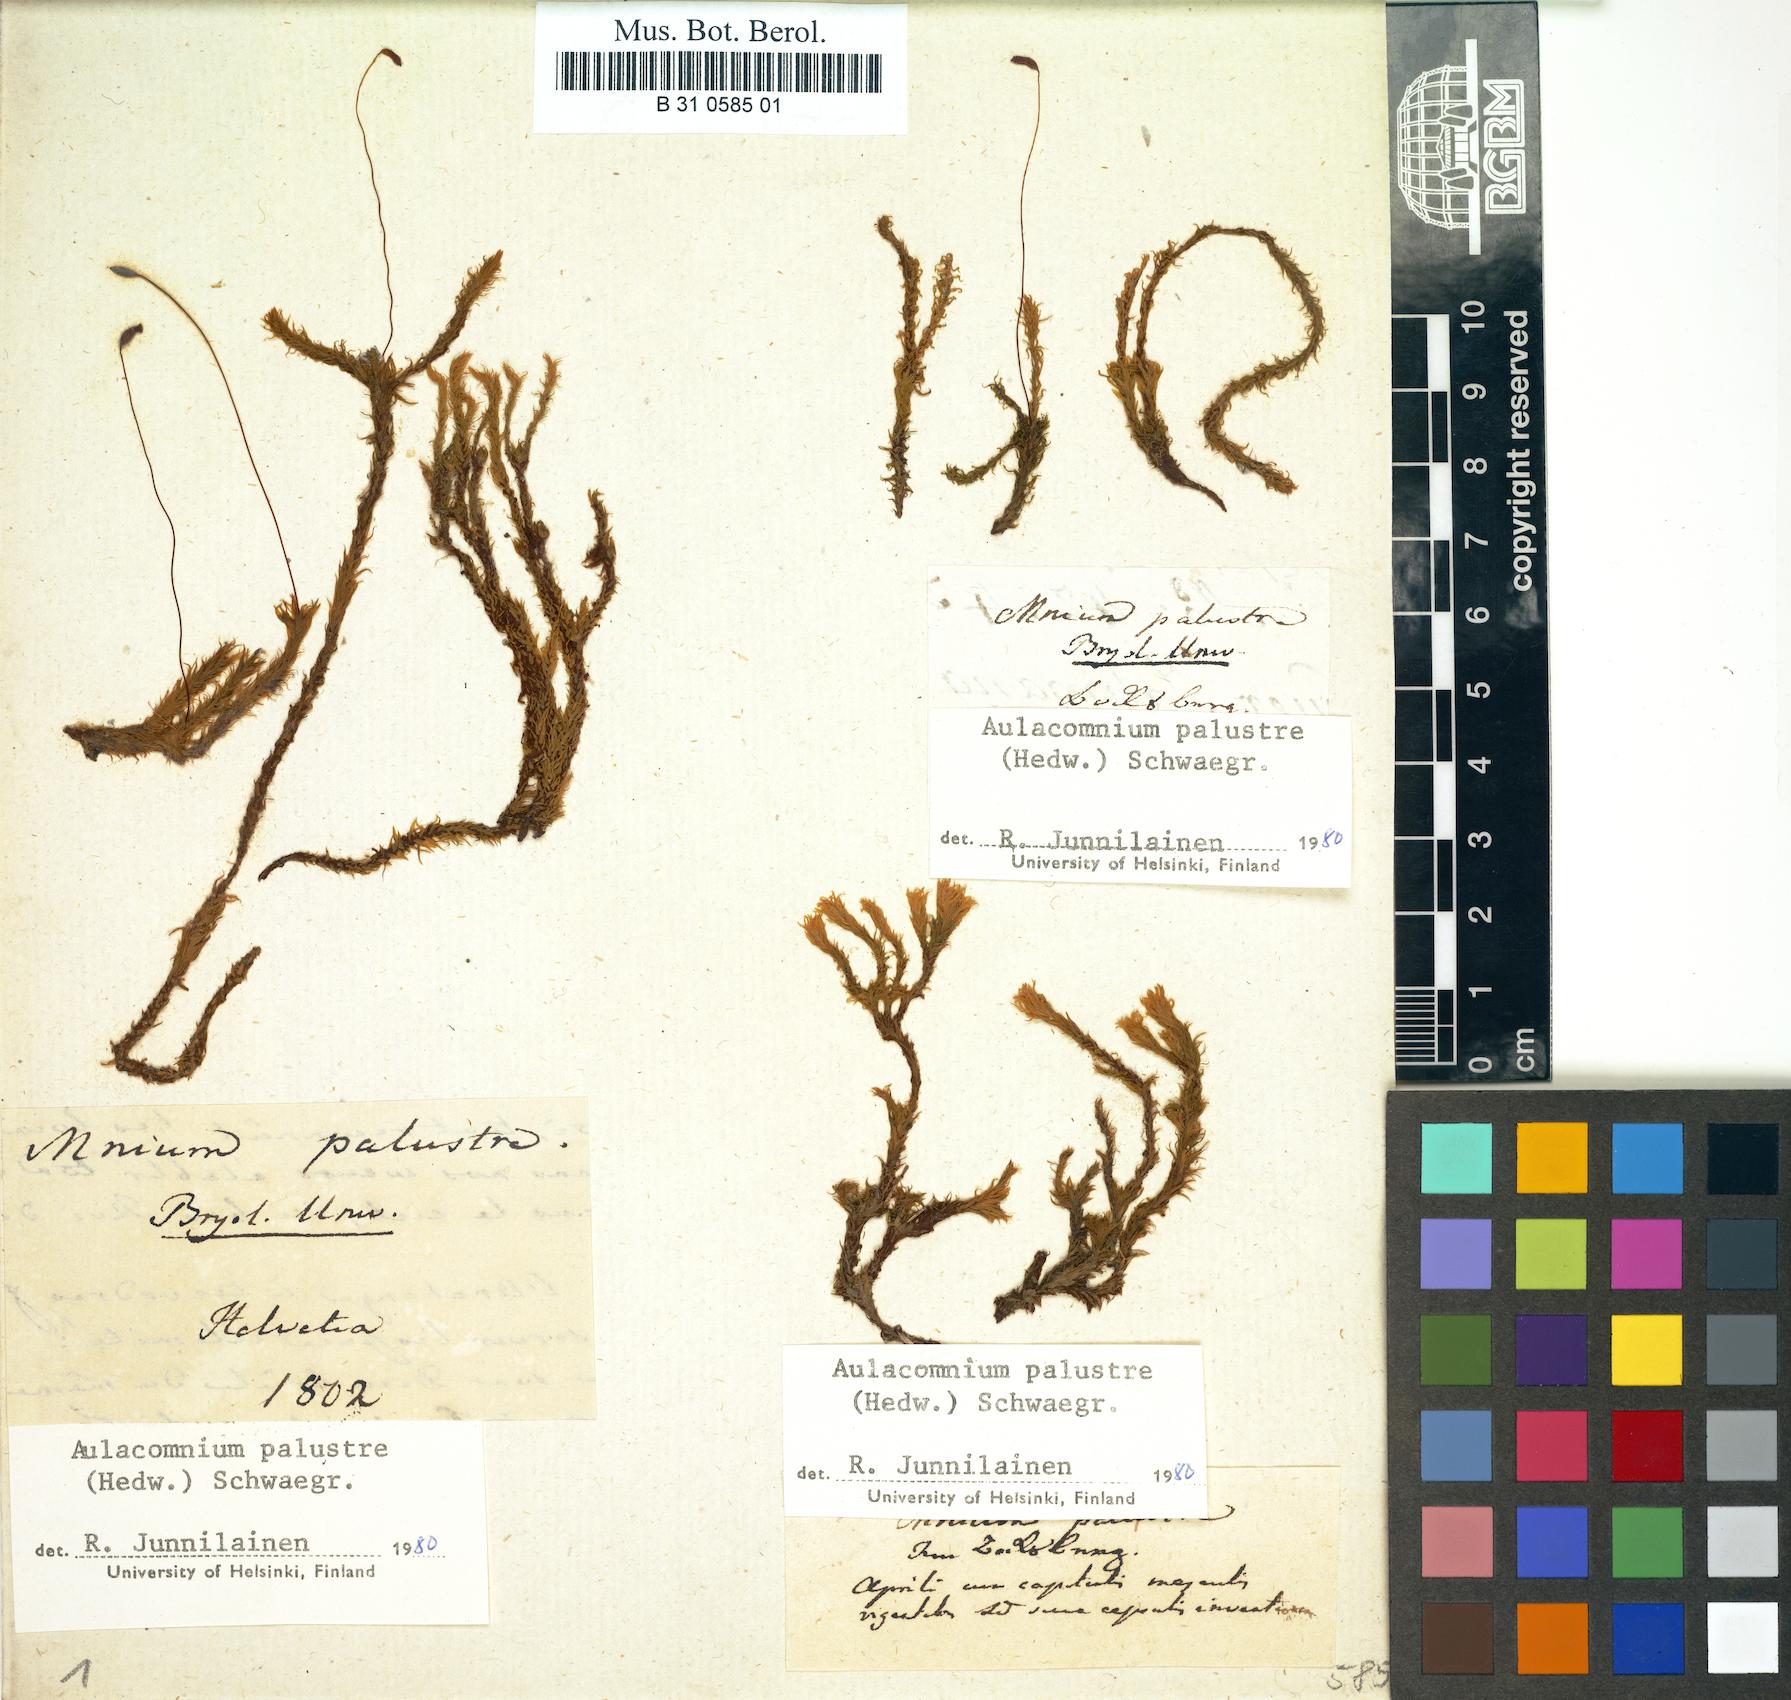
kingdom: Plantae
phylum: Bryophyta
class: Bryopsida
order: Aulacomniales
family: Aulacomniaceae
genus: Aulacomnium
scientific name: Aulacomnium palustre
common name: Bog groove-moss
